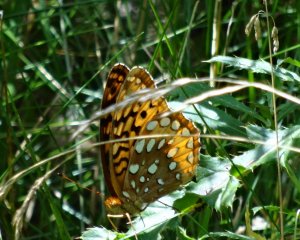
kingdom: Animalia
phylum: Arthropoda
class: Insecta
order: Lepidoptera
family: Nymphalidae
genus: Speyeria
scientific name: Speyeria cybele
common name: Great Spangled Fritillary
